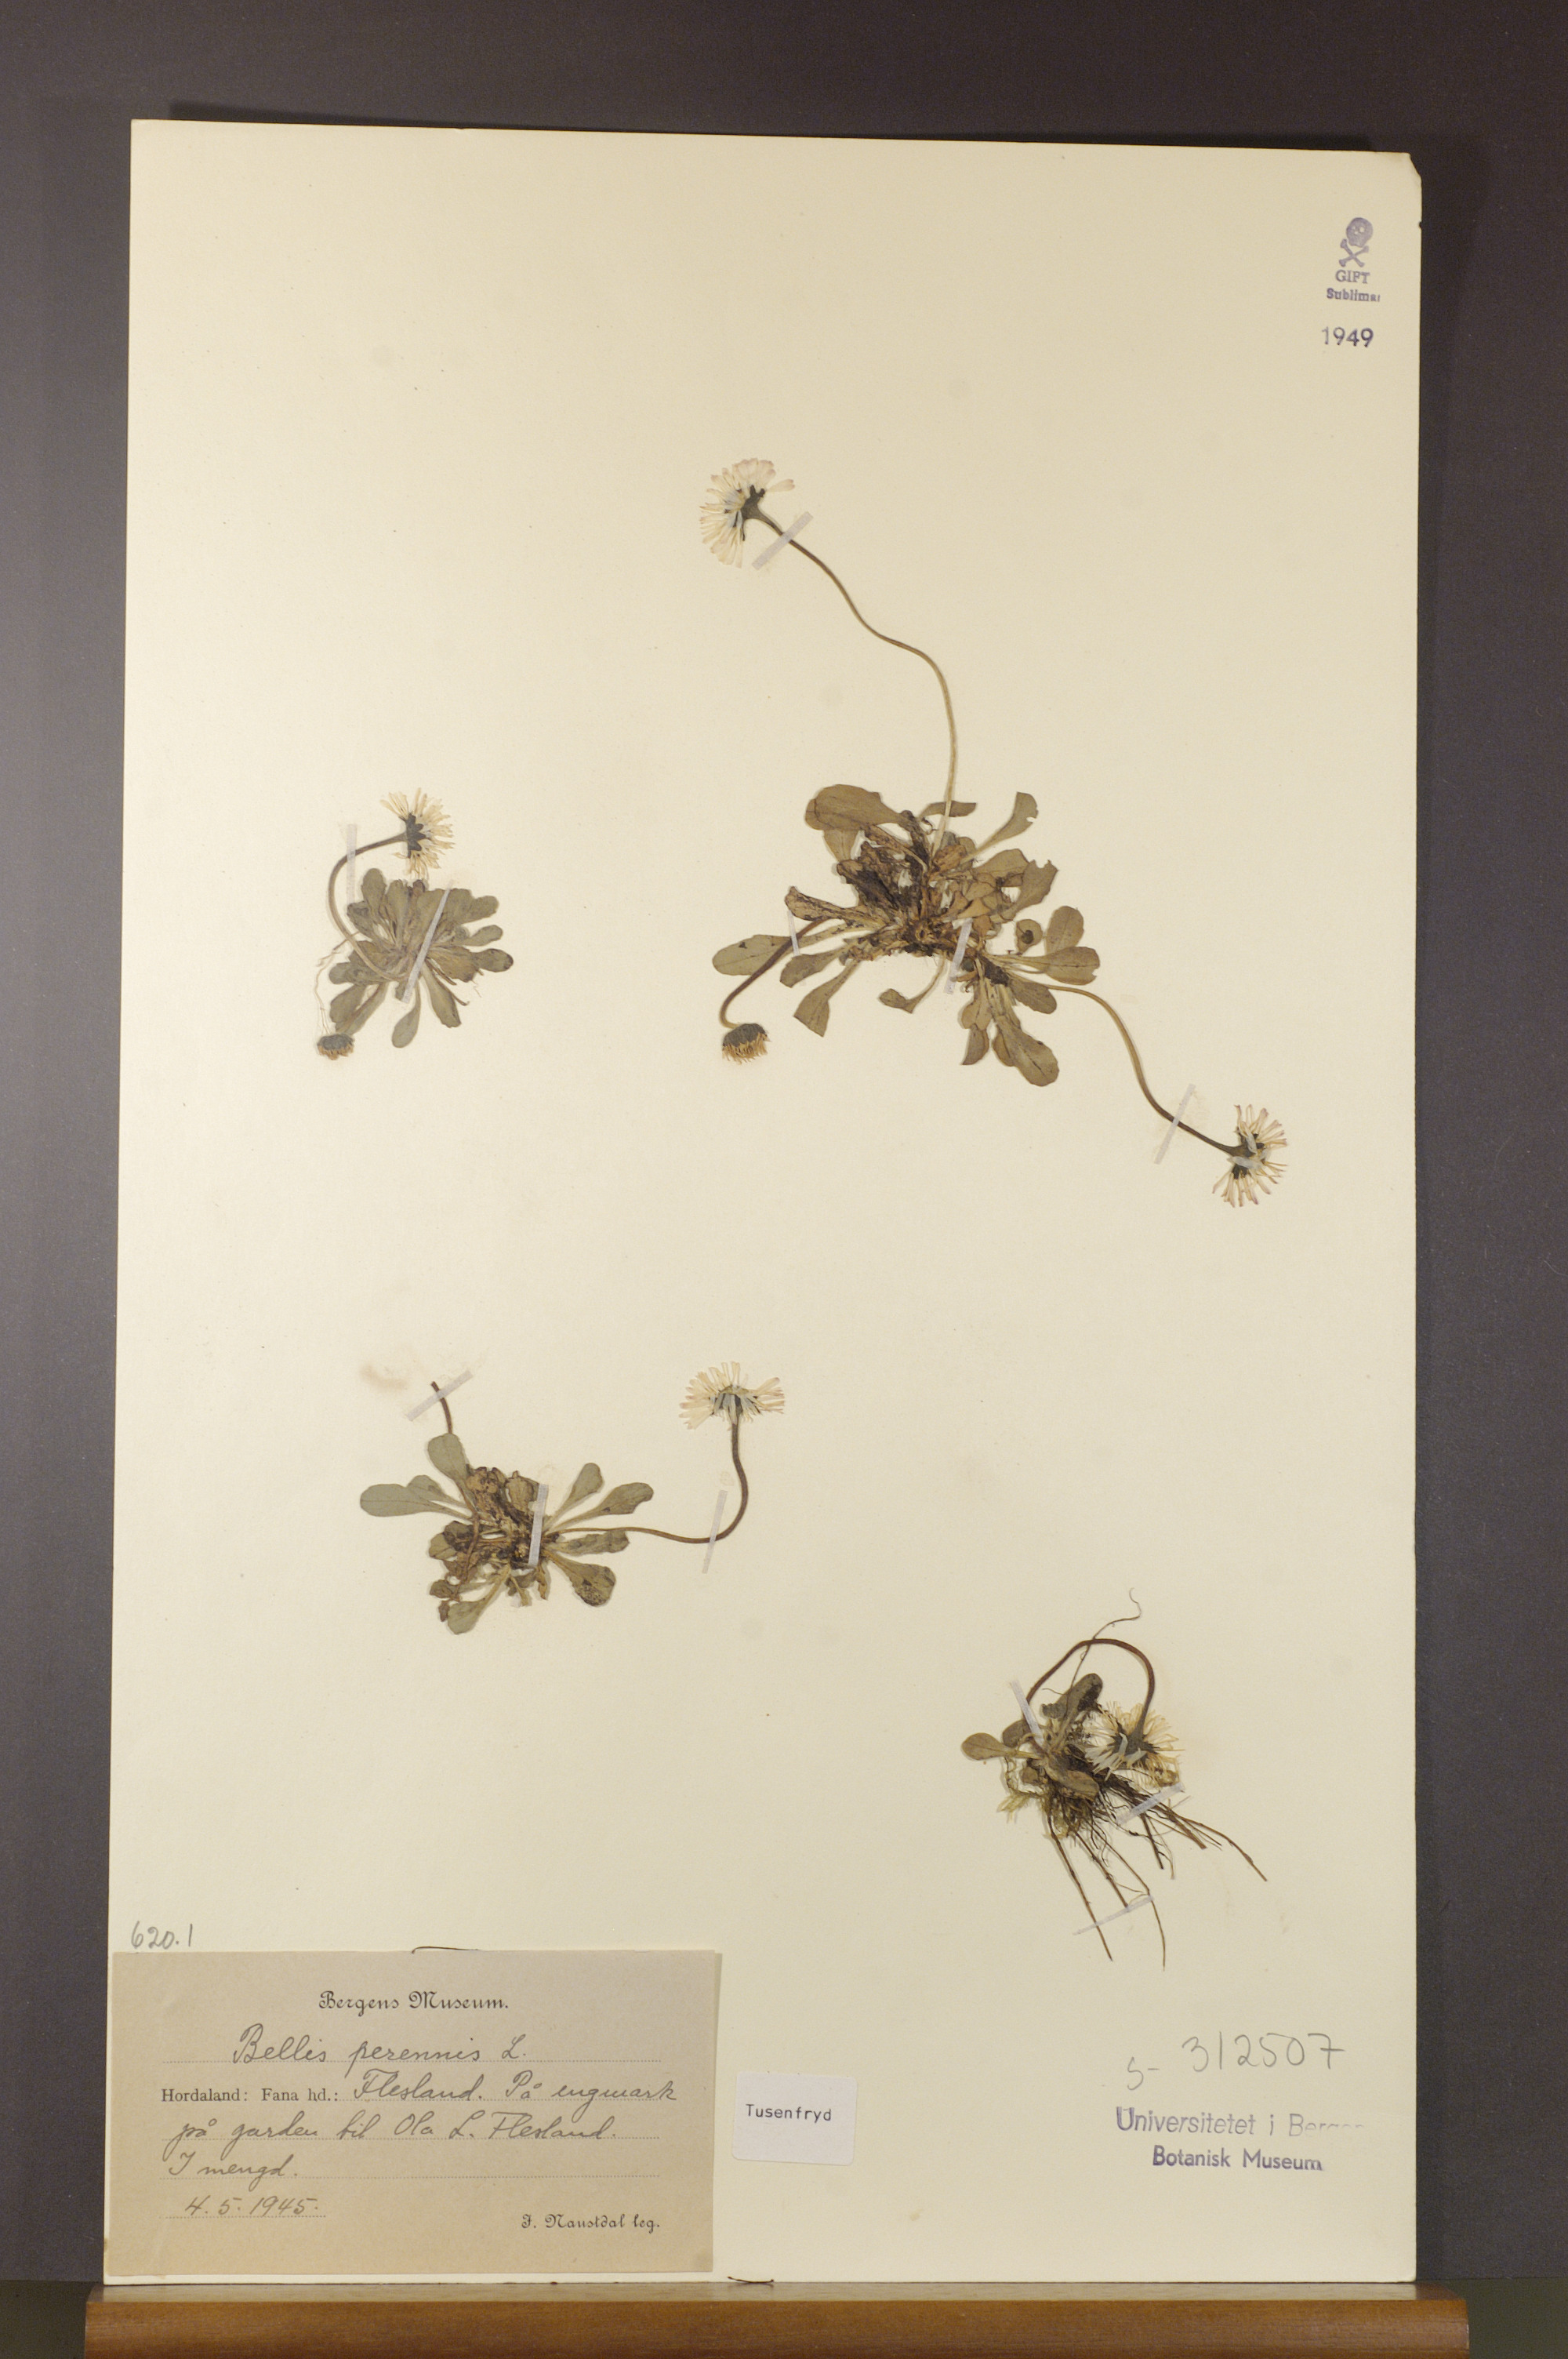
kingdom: Plantae
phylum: Tracheophyta
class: Magnoliopsida
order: Asterales
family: Asteraceae
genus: Bellis
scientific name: Bellis perennis
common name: Lawndaisy
